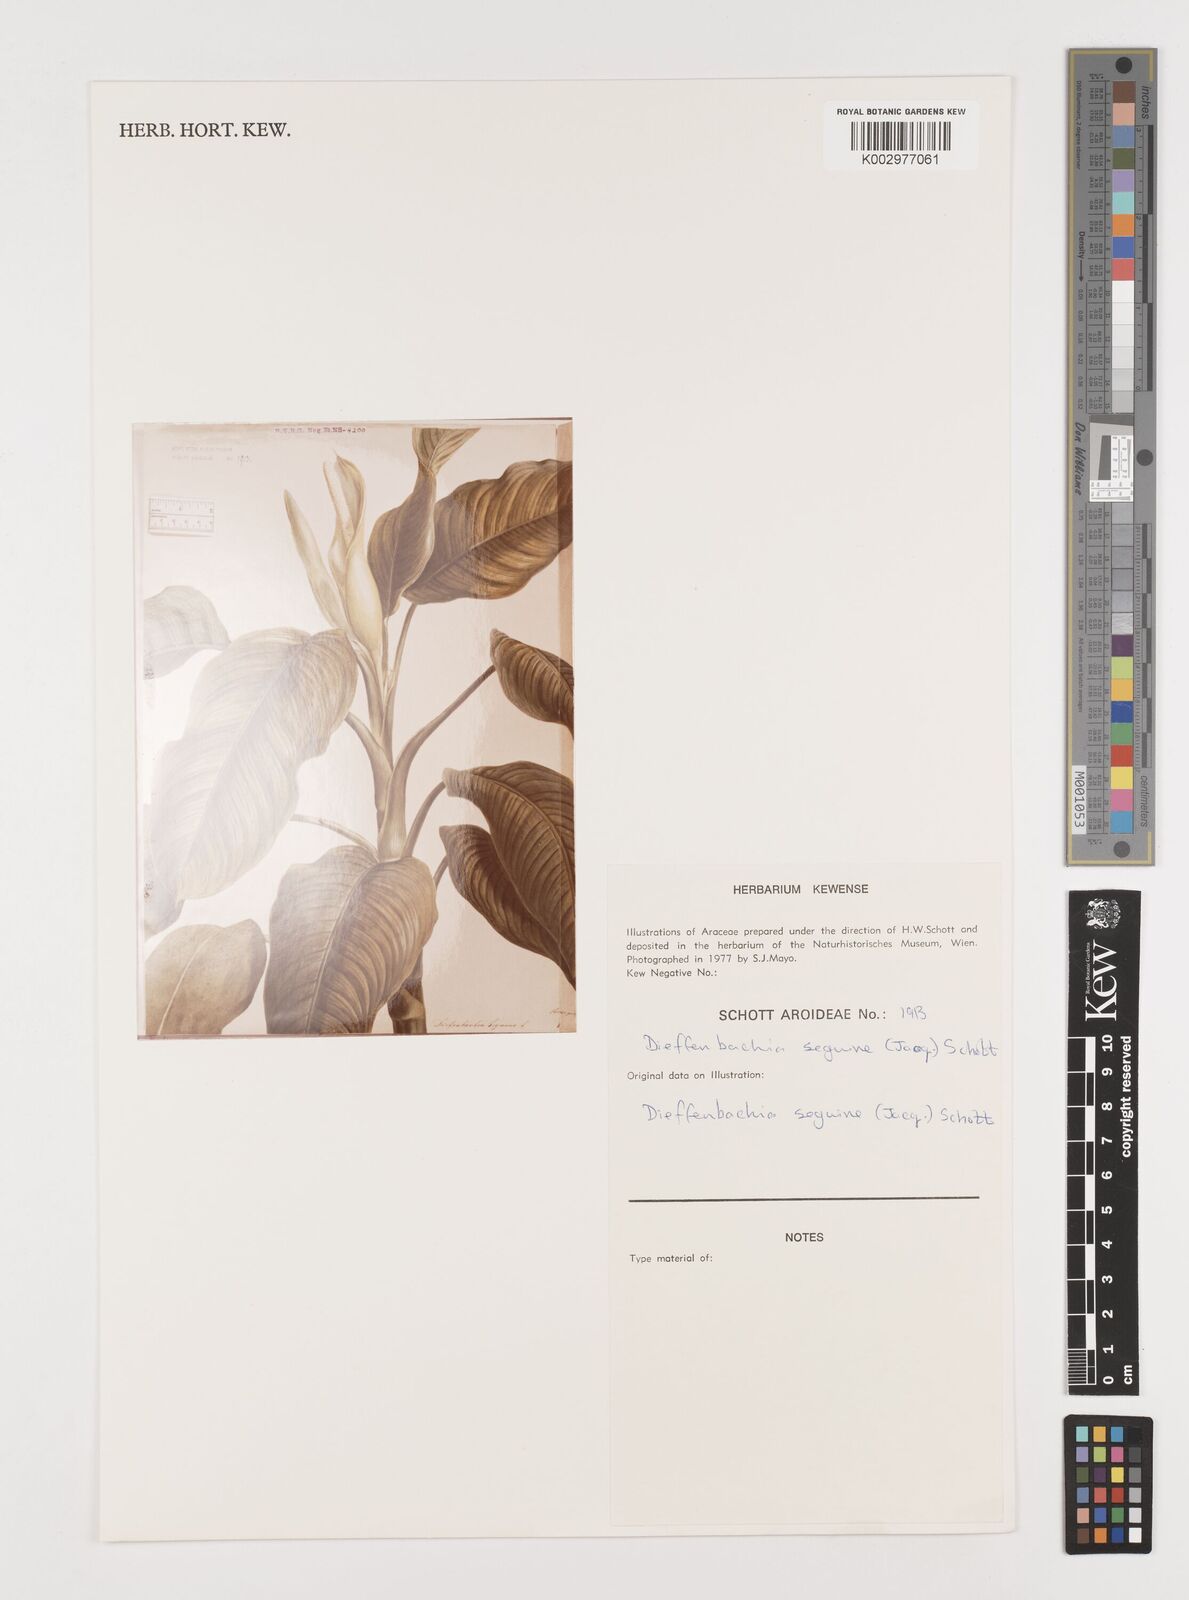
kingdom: Plantae
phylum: Tracheophyta
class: Liliopsida
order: Alismatales
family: Araceae
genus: Dieffenbachia
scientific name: Dieffenbachia seguine
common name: Dumbcane
